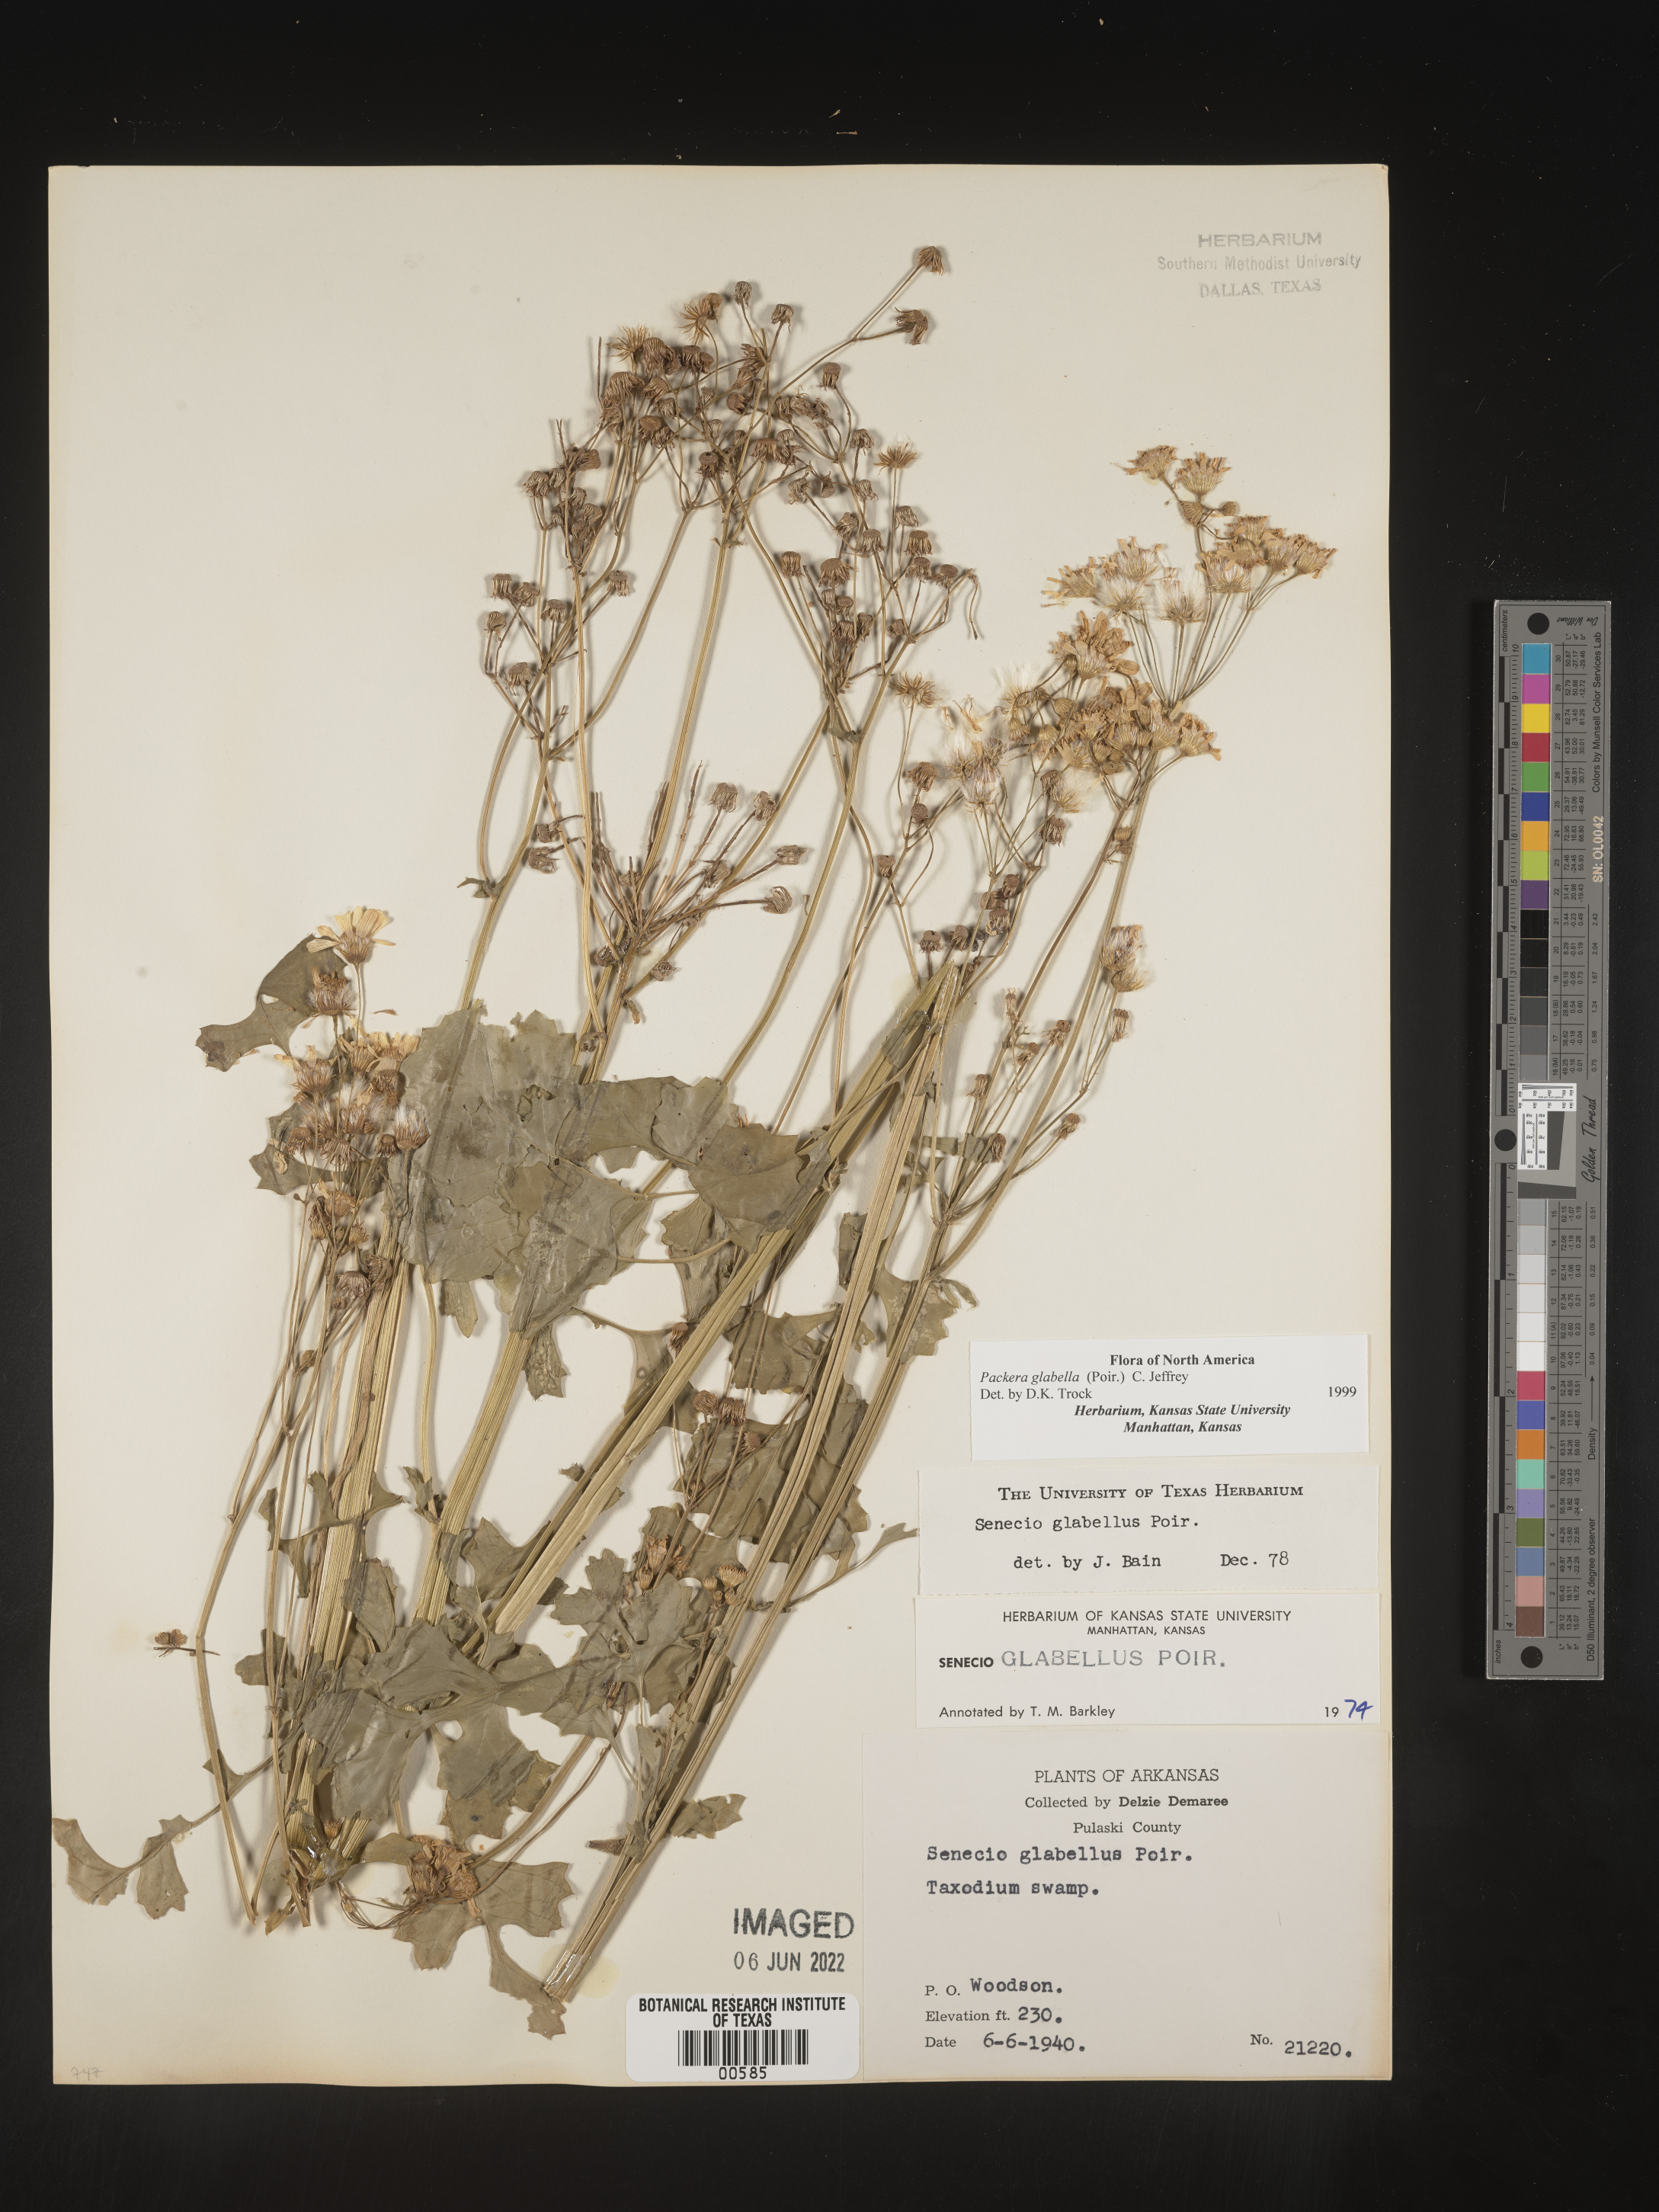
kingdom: Plantae
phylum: Tracheophyta
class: Magnoliopsida
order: Asterales
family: Asteraceae
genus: Packera
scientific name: Packera glabella
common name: Butterweed
